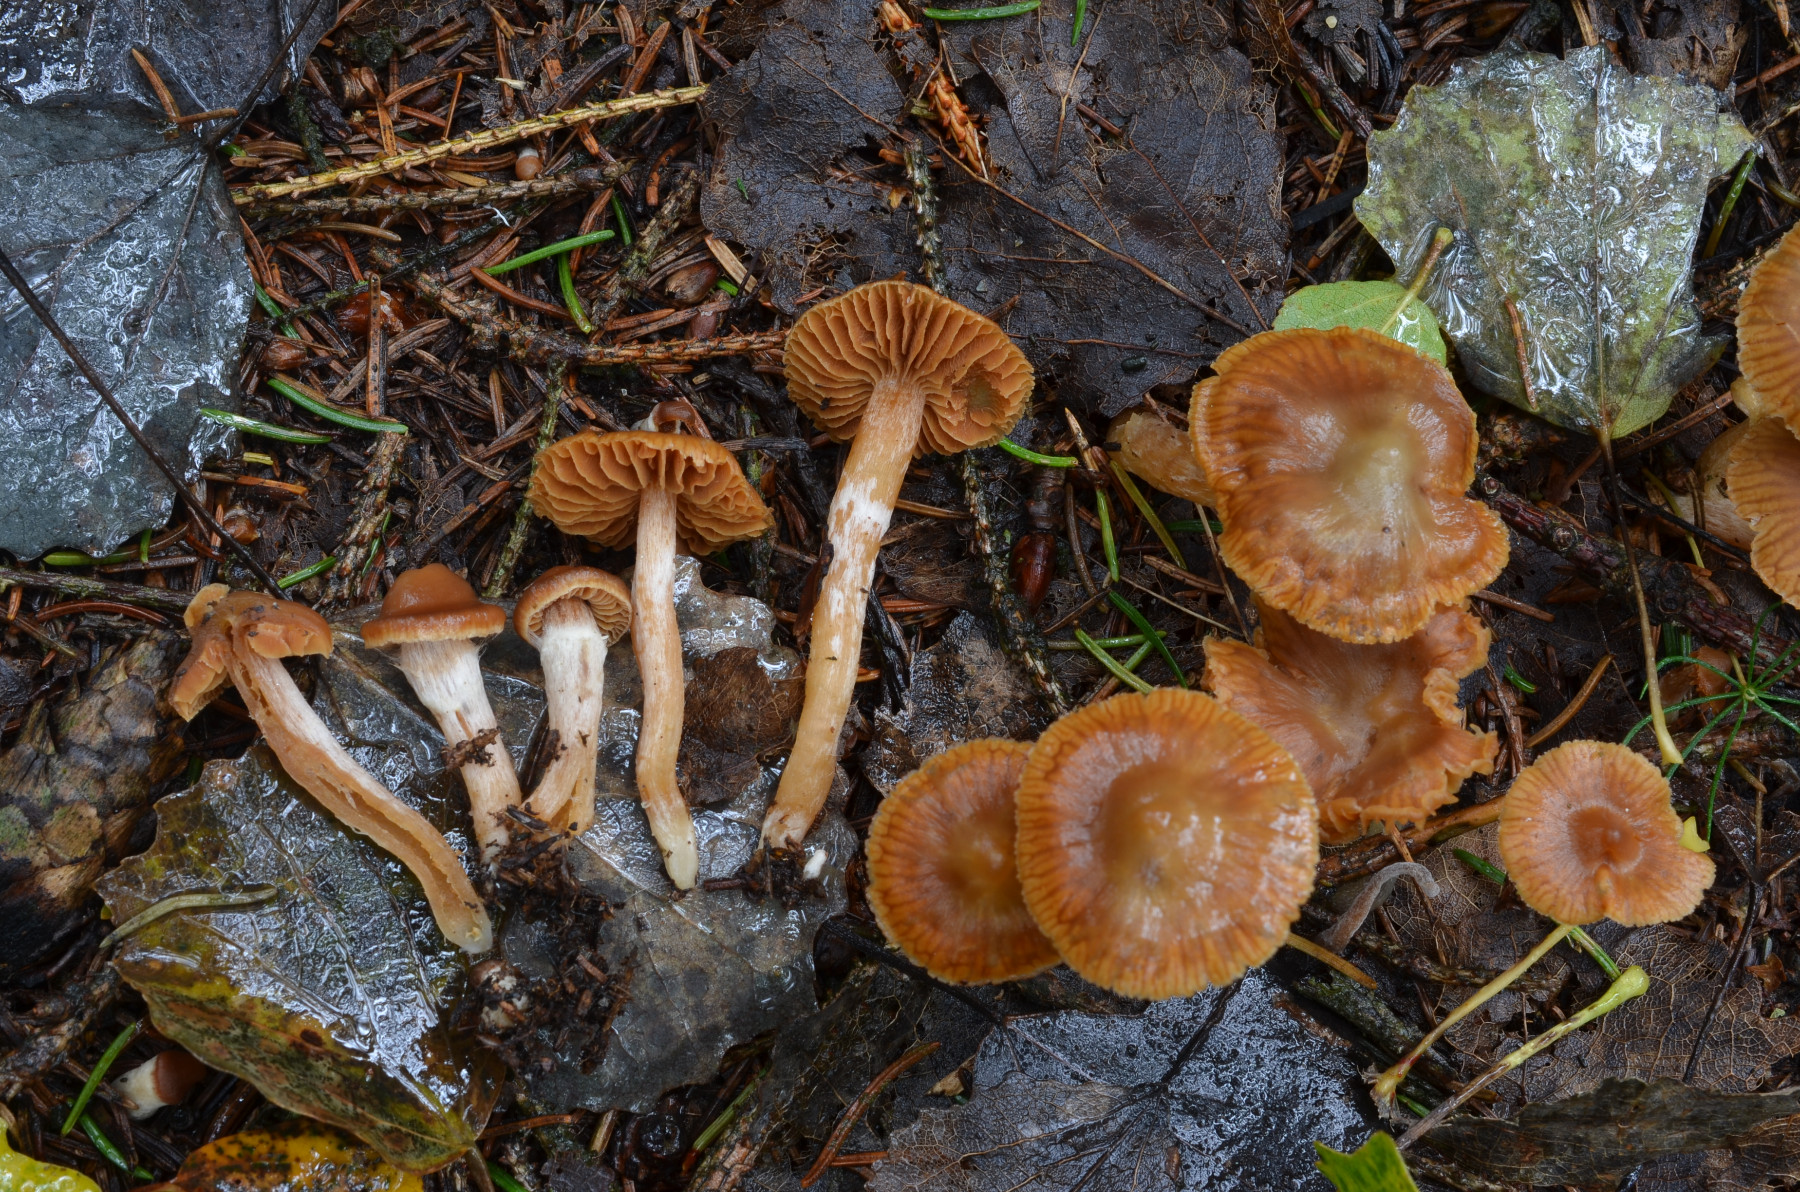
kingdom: Fungi
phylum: Basidiomycota
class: Agaricomycetes
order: Agaricales
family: Cortinariaceae
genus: Cortinarius
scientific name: Cortinarius albovariegatus
